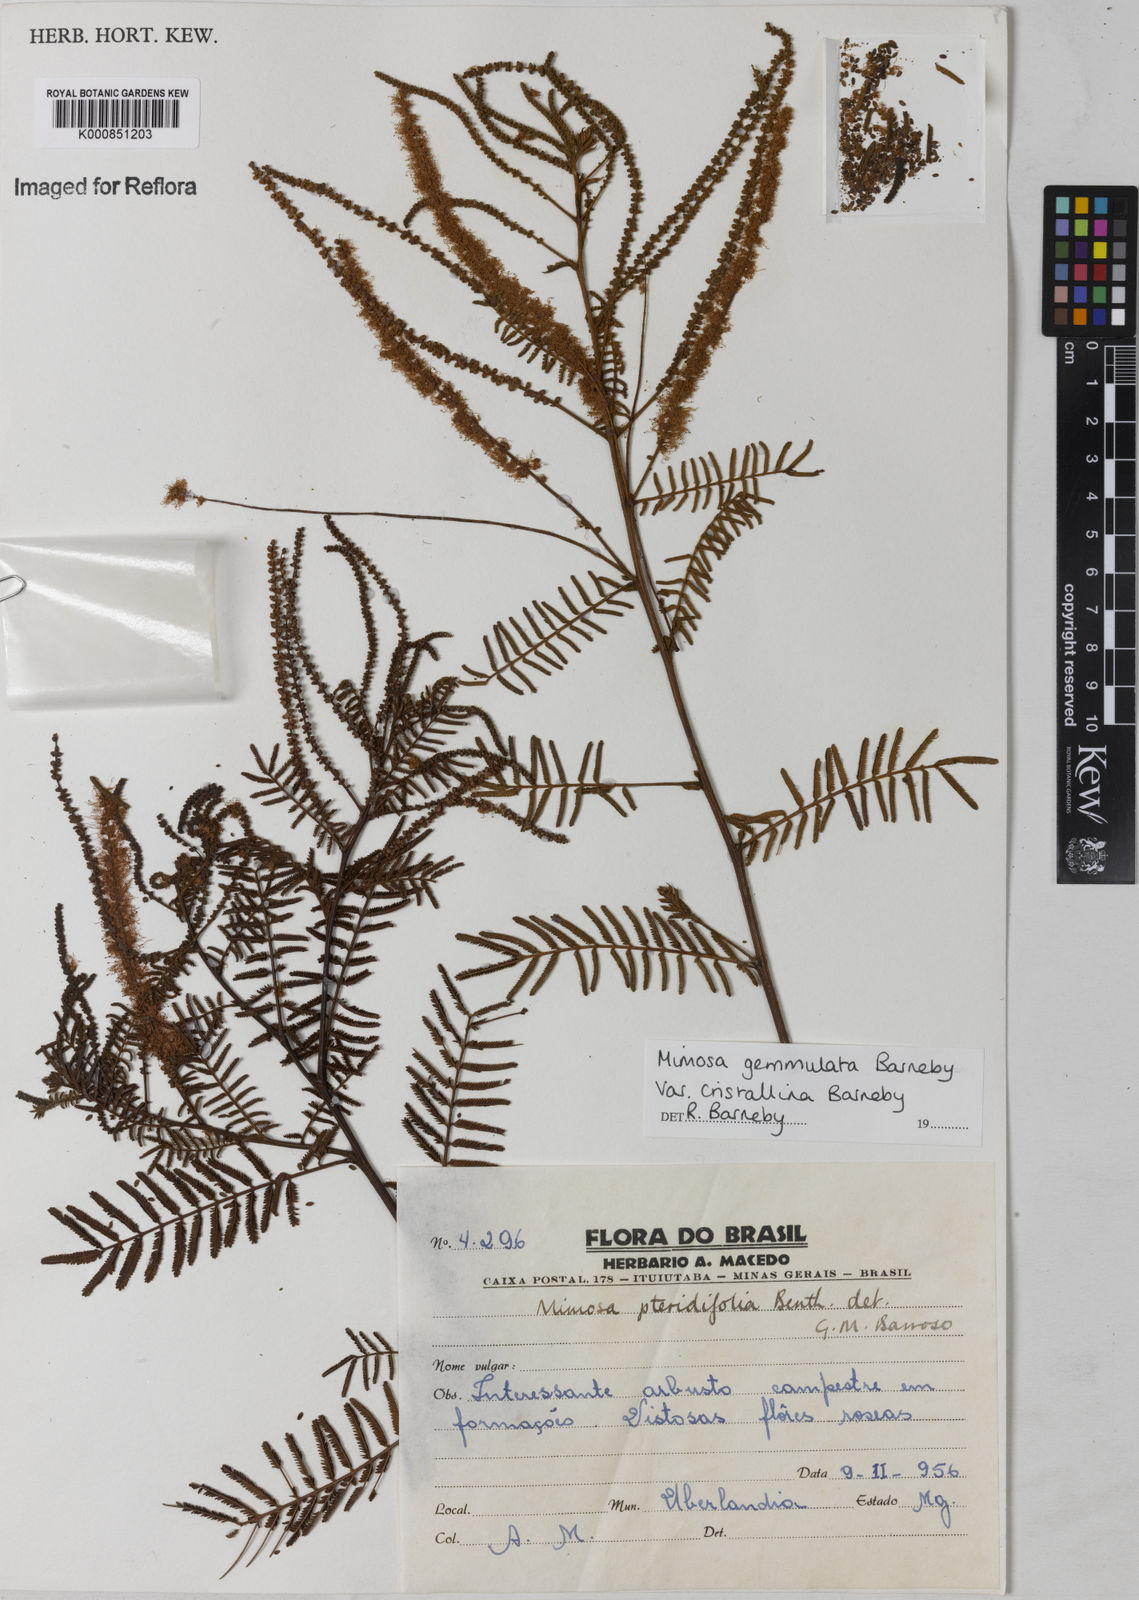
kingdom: Plantae
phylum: Tracheophyta
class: Magnoliopsida
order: Fabales
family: Fabaceae
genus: Mimosa
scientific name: Mimosa gemmulata
